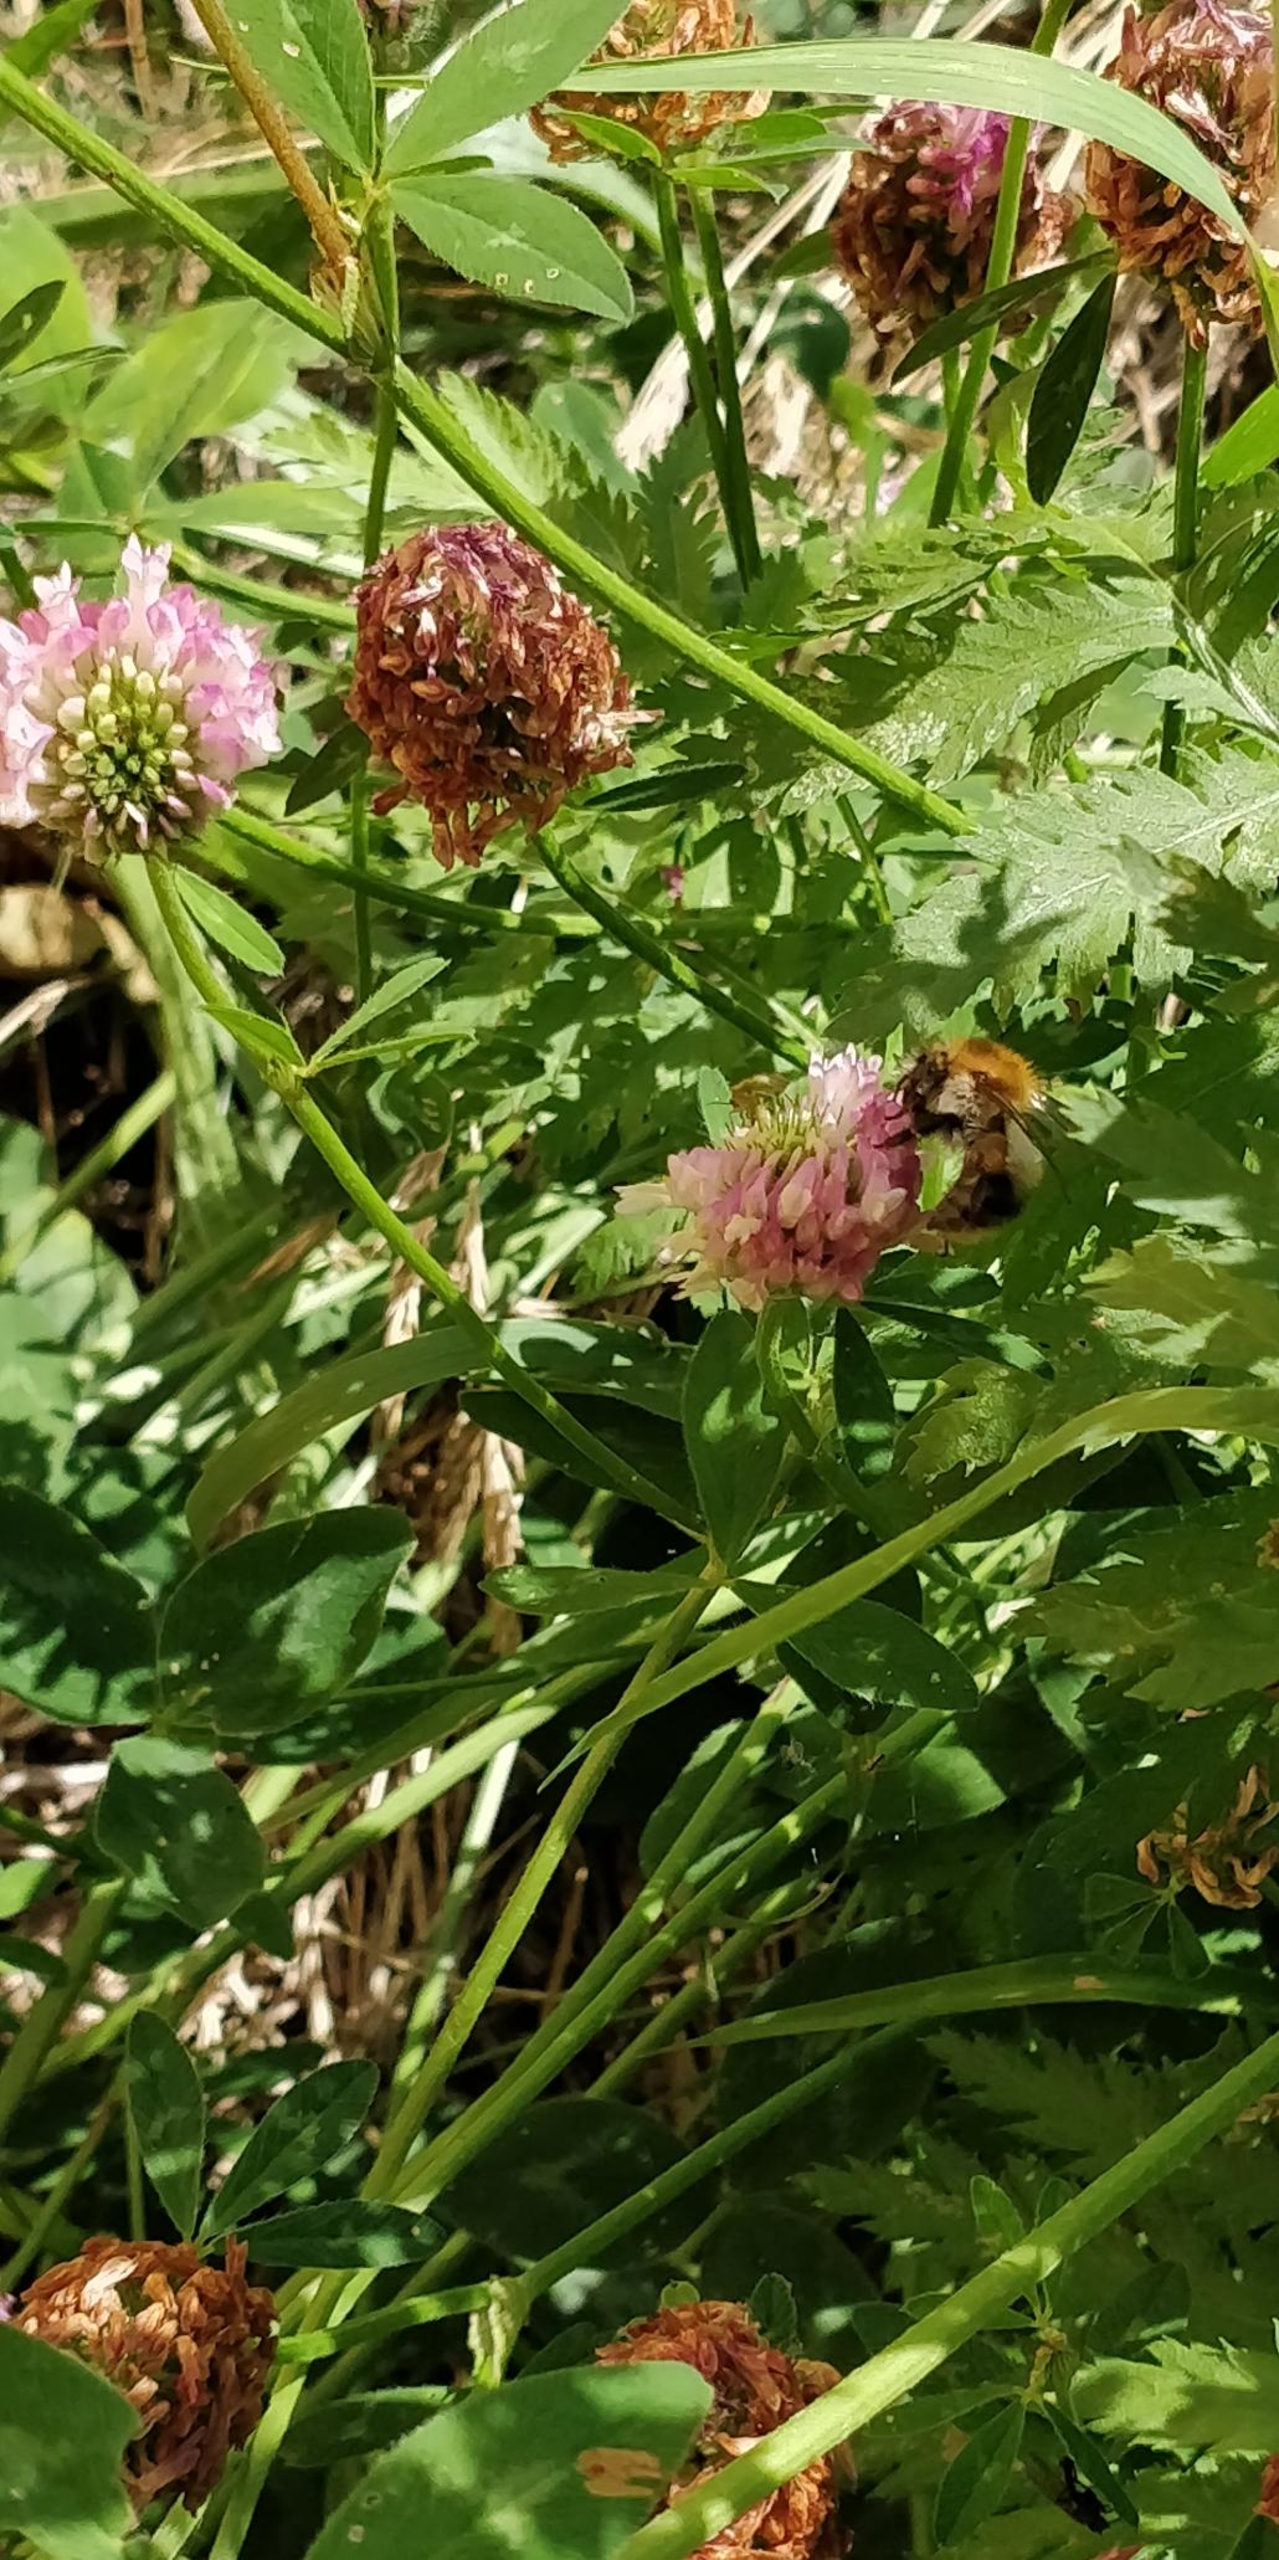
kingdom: Animalia
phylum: Arthropoda
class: Insecta
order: Hymenoptera
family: Apidae
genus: Bombus
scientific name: Bombus pascuorum
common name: Agerhumle
